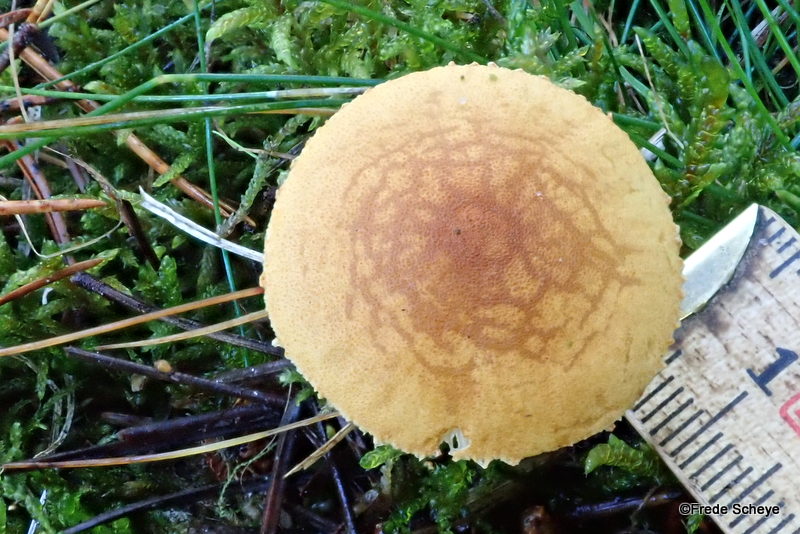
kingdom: Fungi
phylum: Basidiomycota
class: Agaricomycetes
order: Agaricales
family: Tricholomataceae
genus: Cystoderma
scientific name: Cystoderma amianthinum
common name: okkergul grynhat
